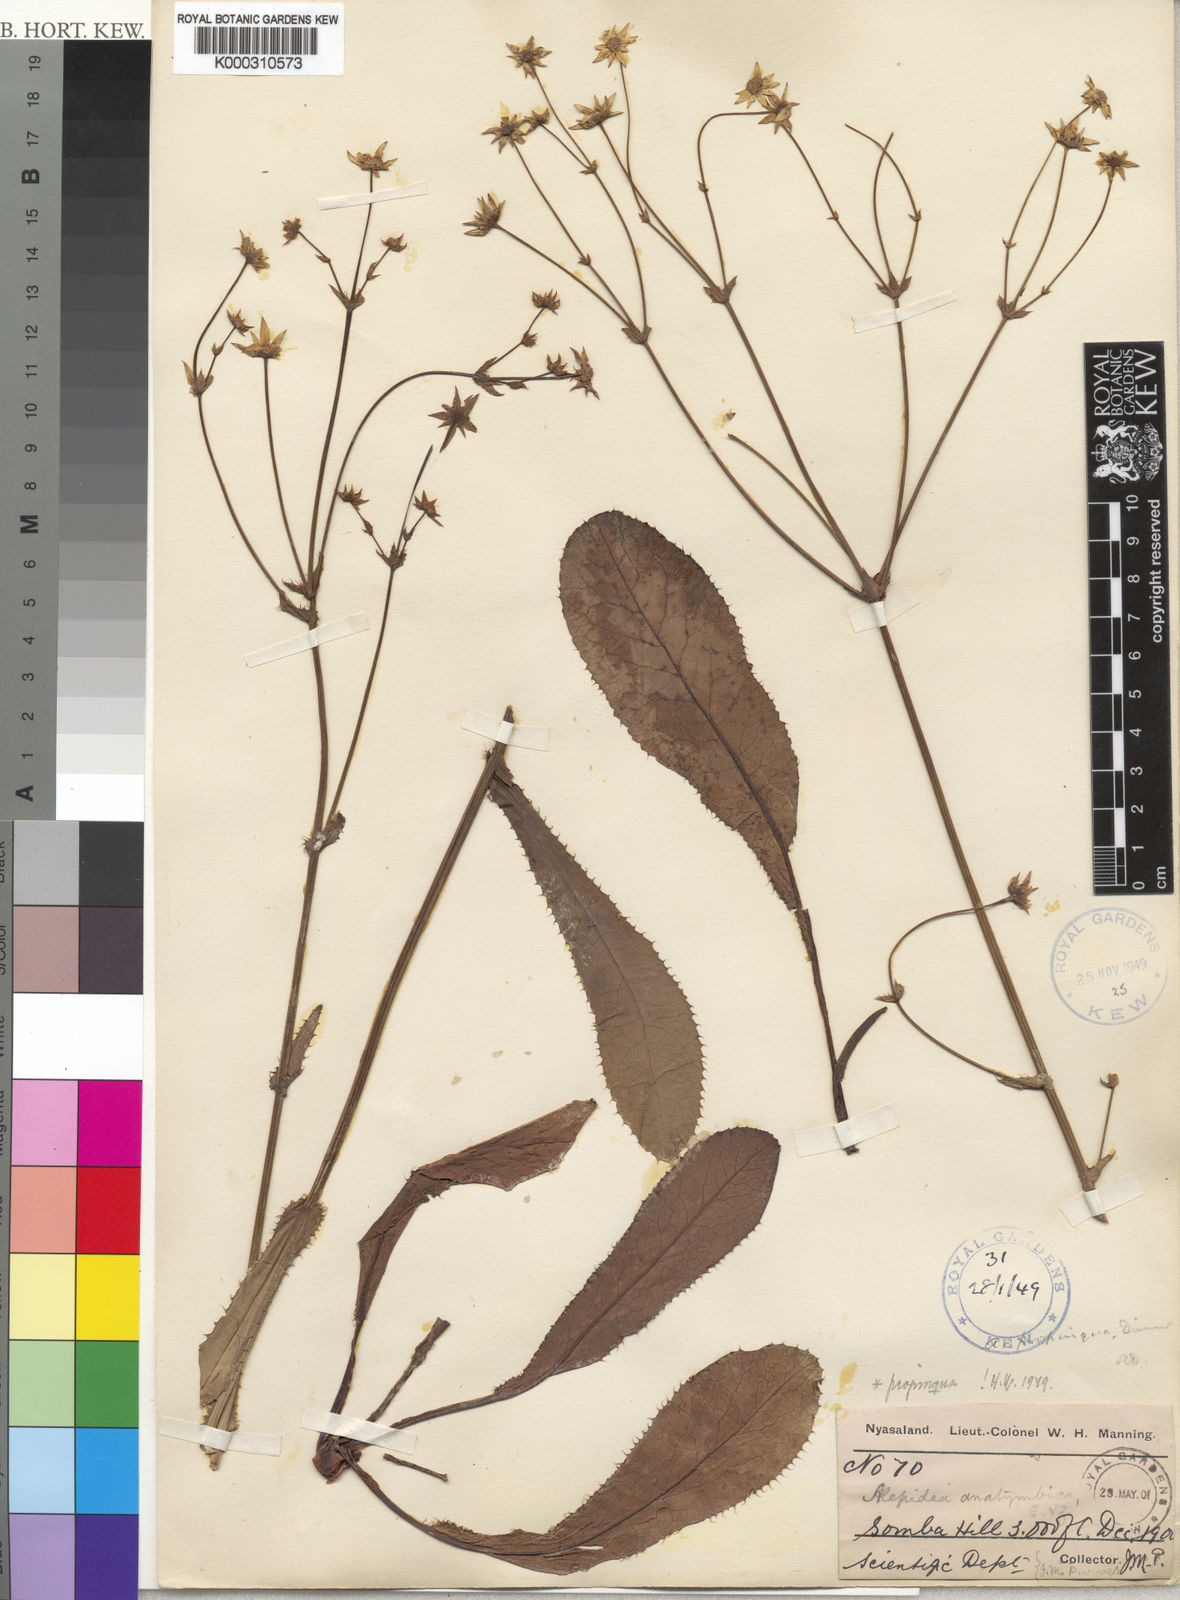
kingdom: Plantae
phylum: Tracheophyta
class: Magnoliopsida
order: Apiales
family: Apiaceae
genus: Alepidea
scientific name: Alepidea peduncularis
